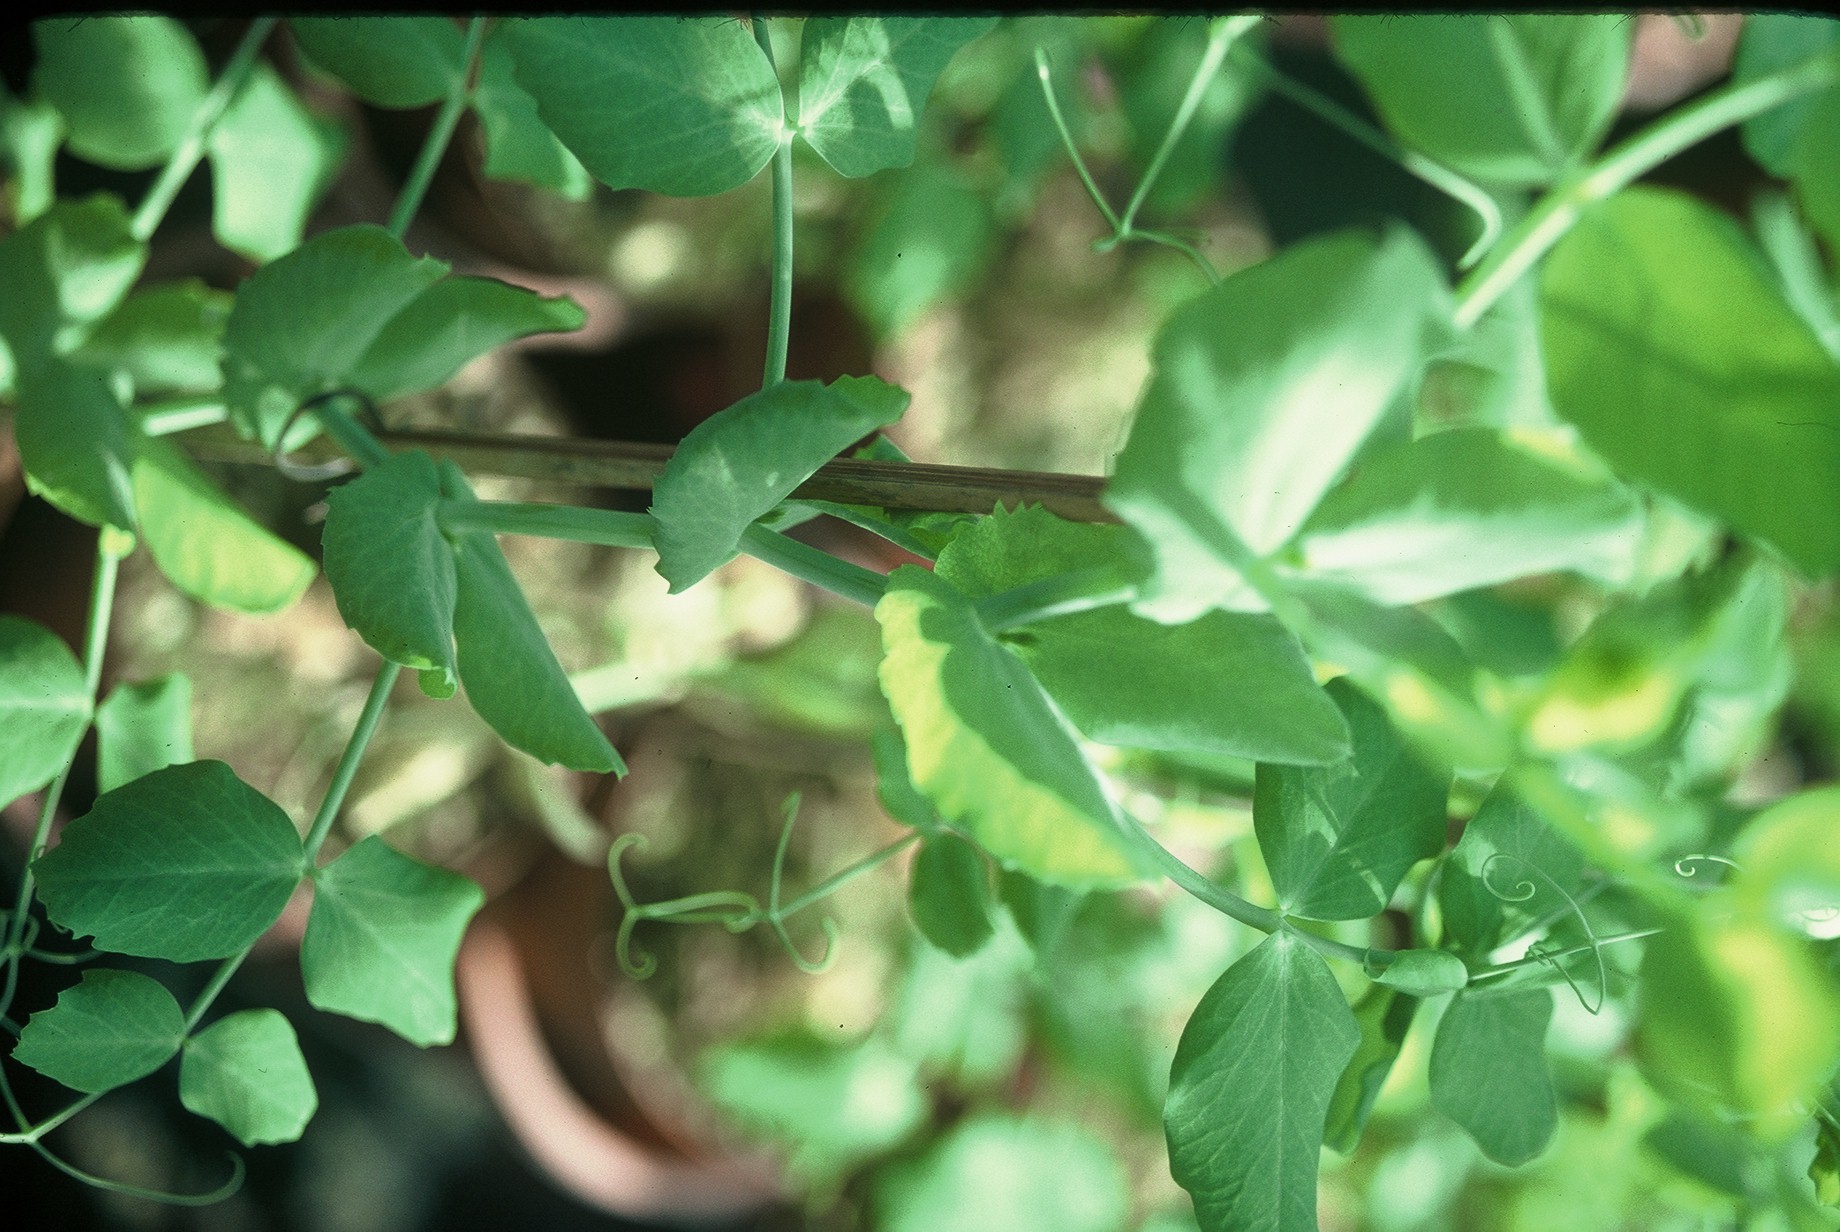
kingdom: Plantae
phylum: Tracheophyta
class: Magnoliopsida
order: Fabales
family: Fabaceae
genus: Lathyrus
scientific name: Lathyrus oleraceus
